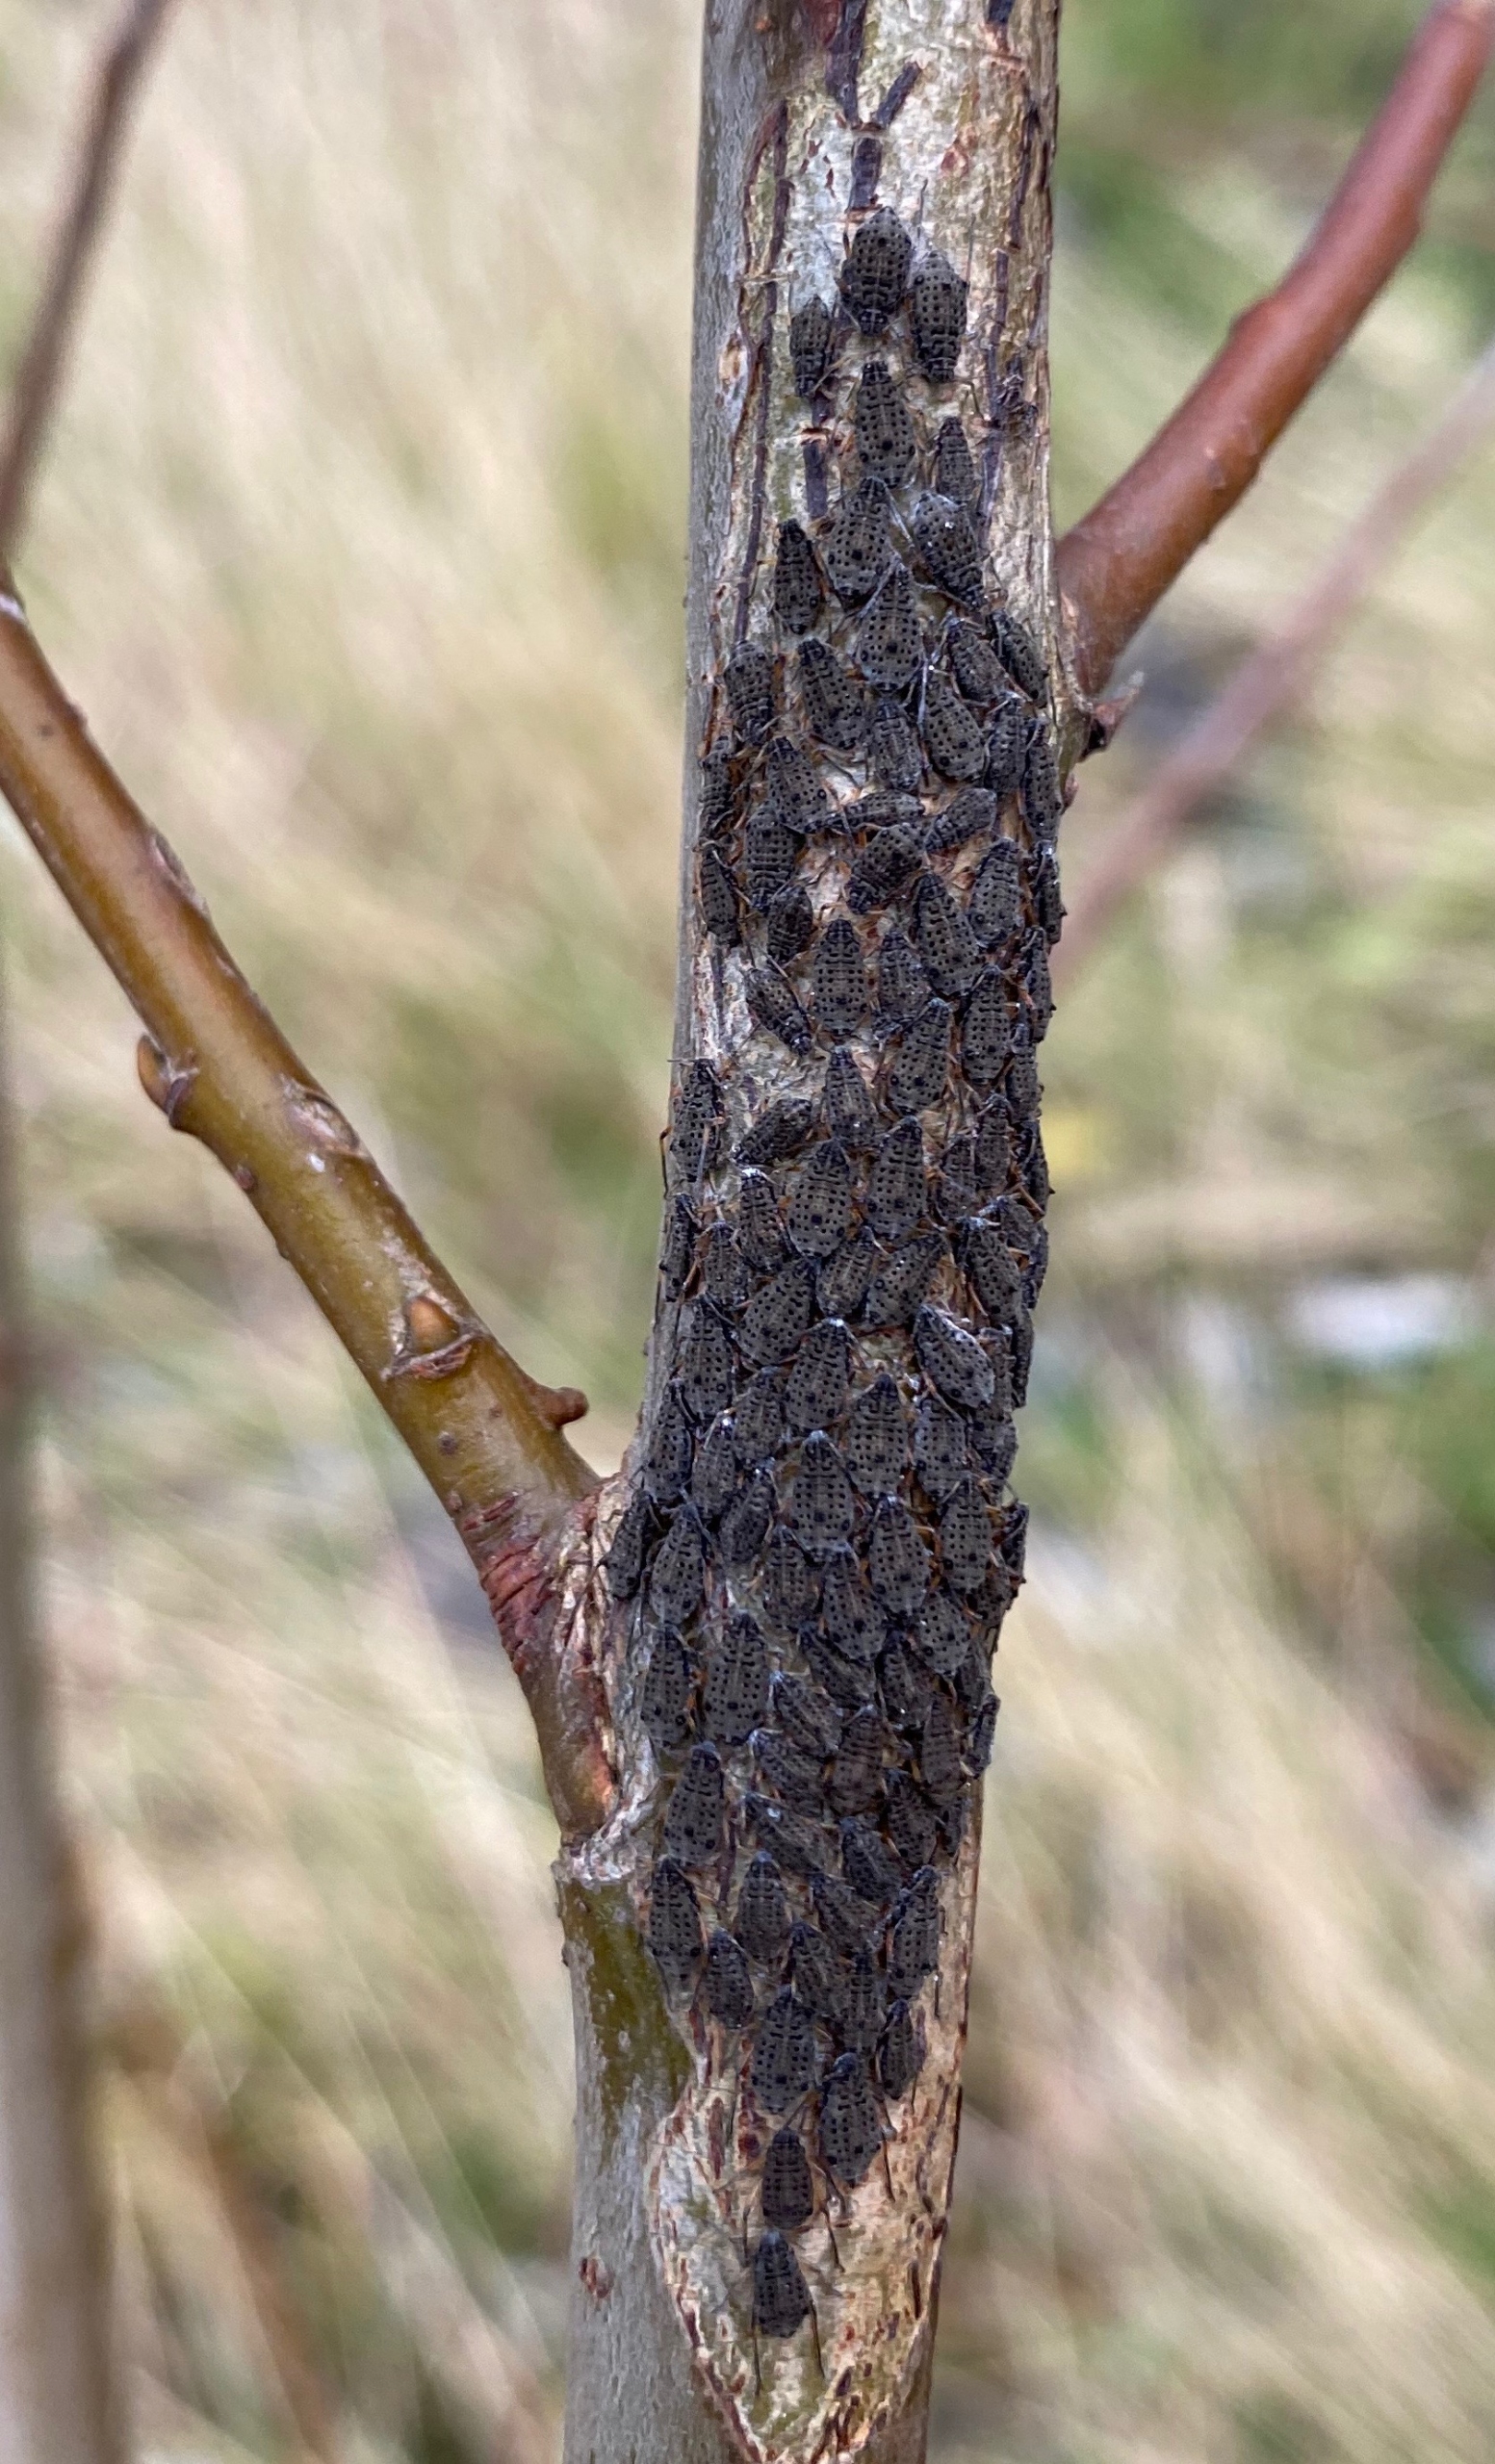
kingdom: Animalia
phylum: Arthropoda
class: Insecta
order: Hemiptera
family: Aphididae
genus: Tuberolachnus
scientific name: Tuberolachnus salignus
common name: Pilegrenbladlus
